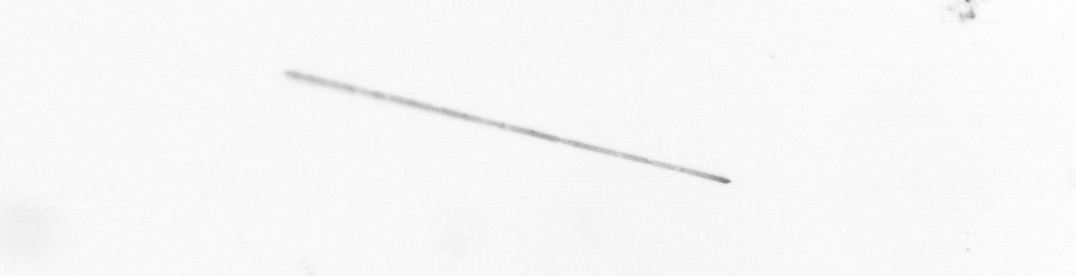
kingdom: Chromista
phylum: Ochrophyta
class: Bacillariophyceae
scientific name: Bacillariophyceae
